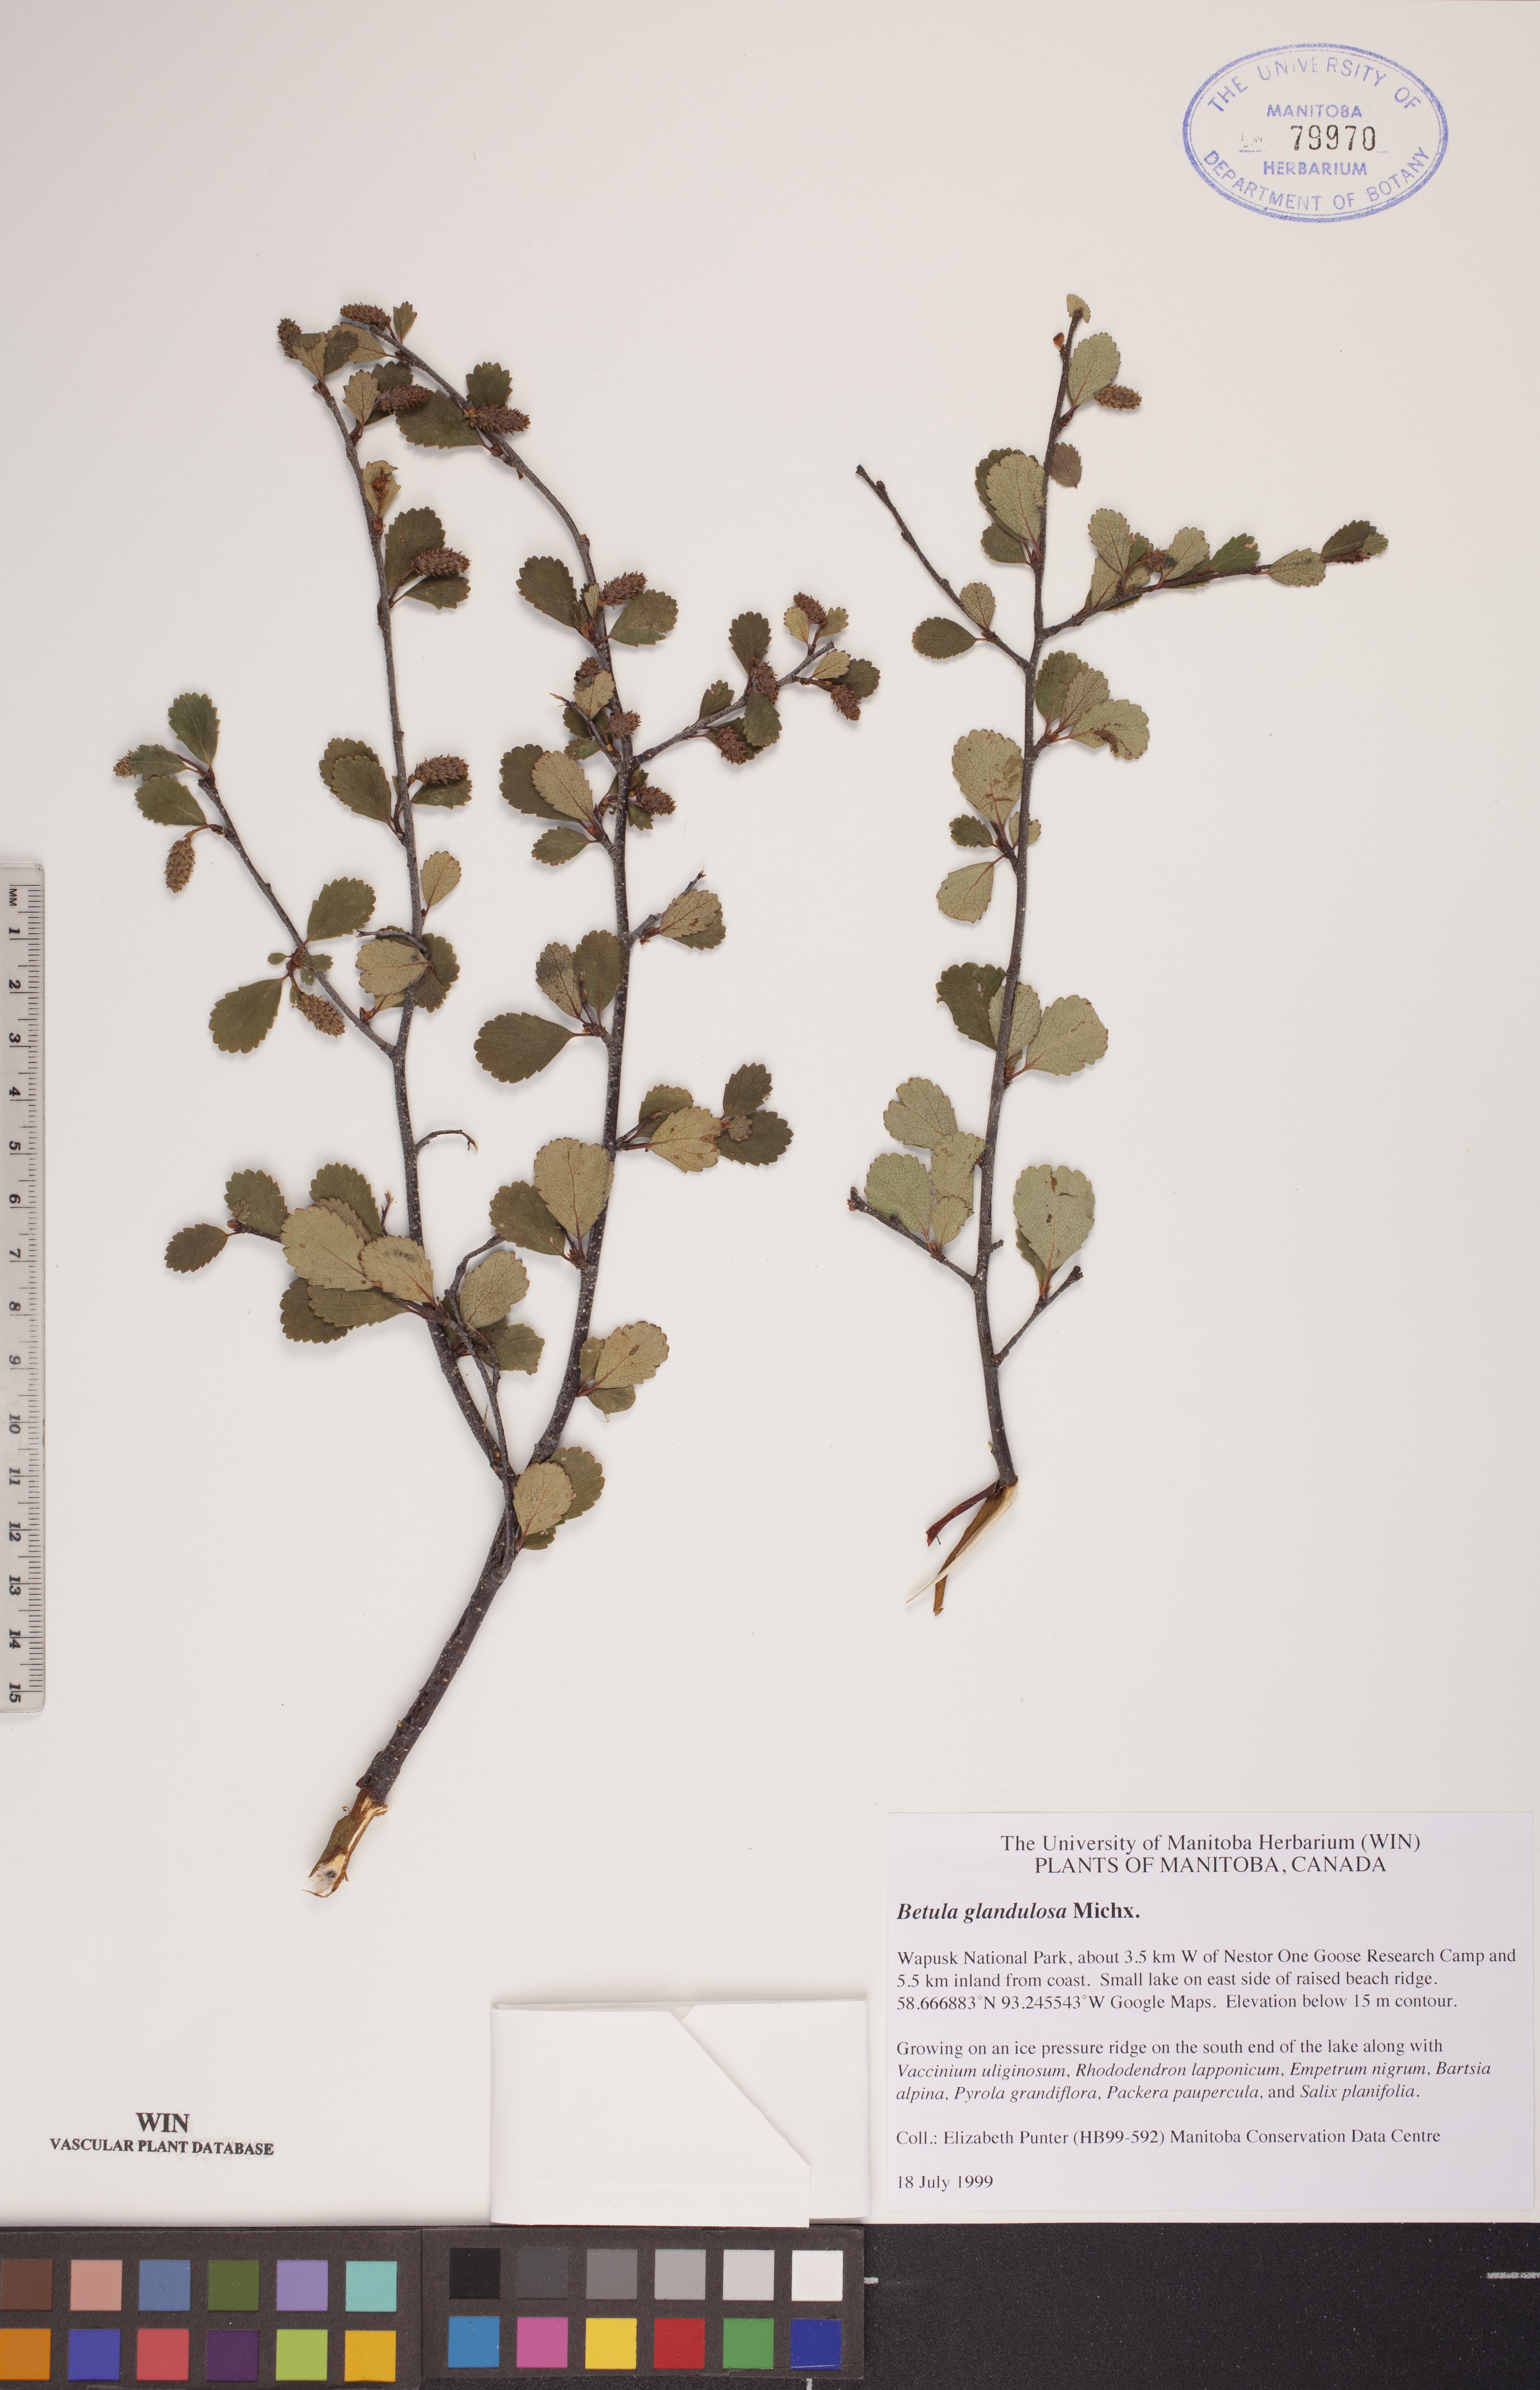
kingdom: Plantae
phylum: Tracheophyta
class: Magnoliopsida
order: Fagales
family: Betulaceae
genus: Betula
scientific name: Betula glandulosa
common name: Dwarf birch
